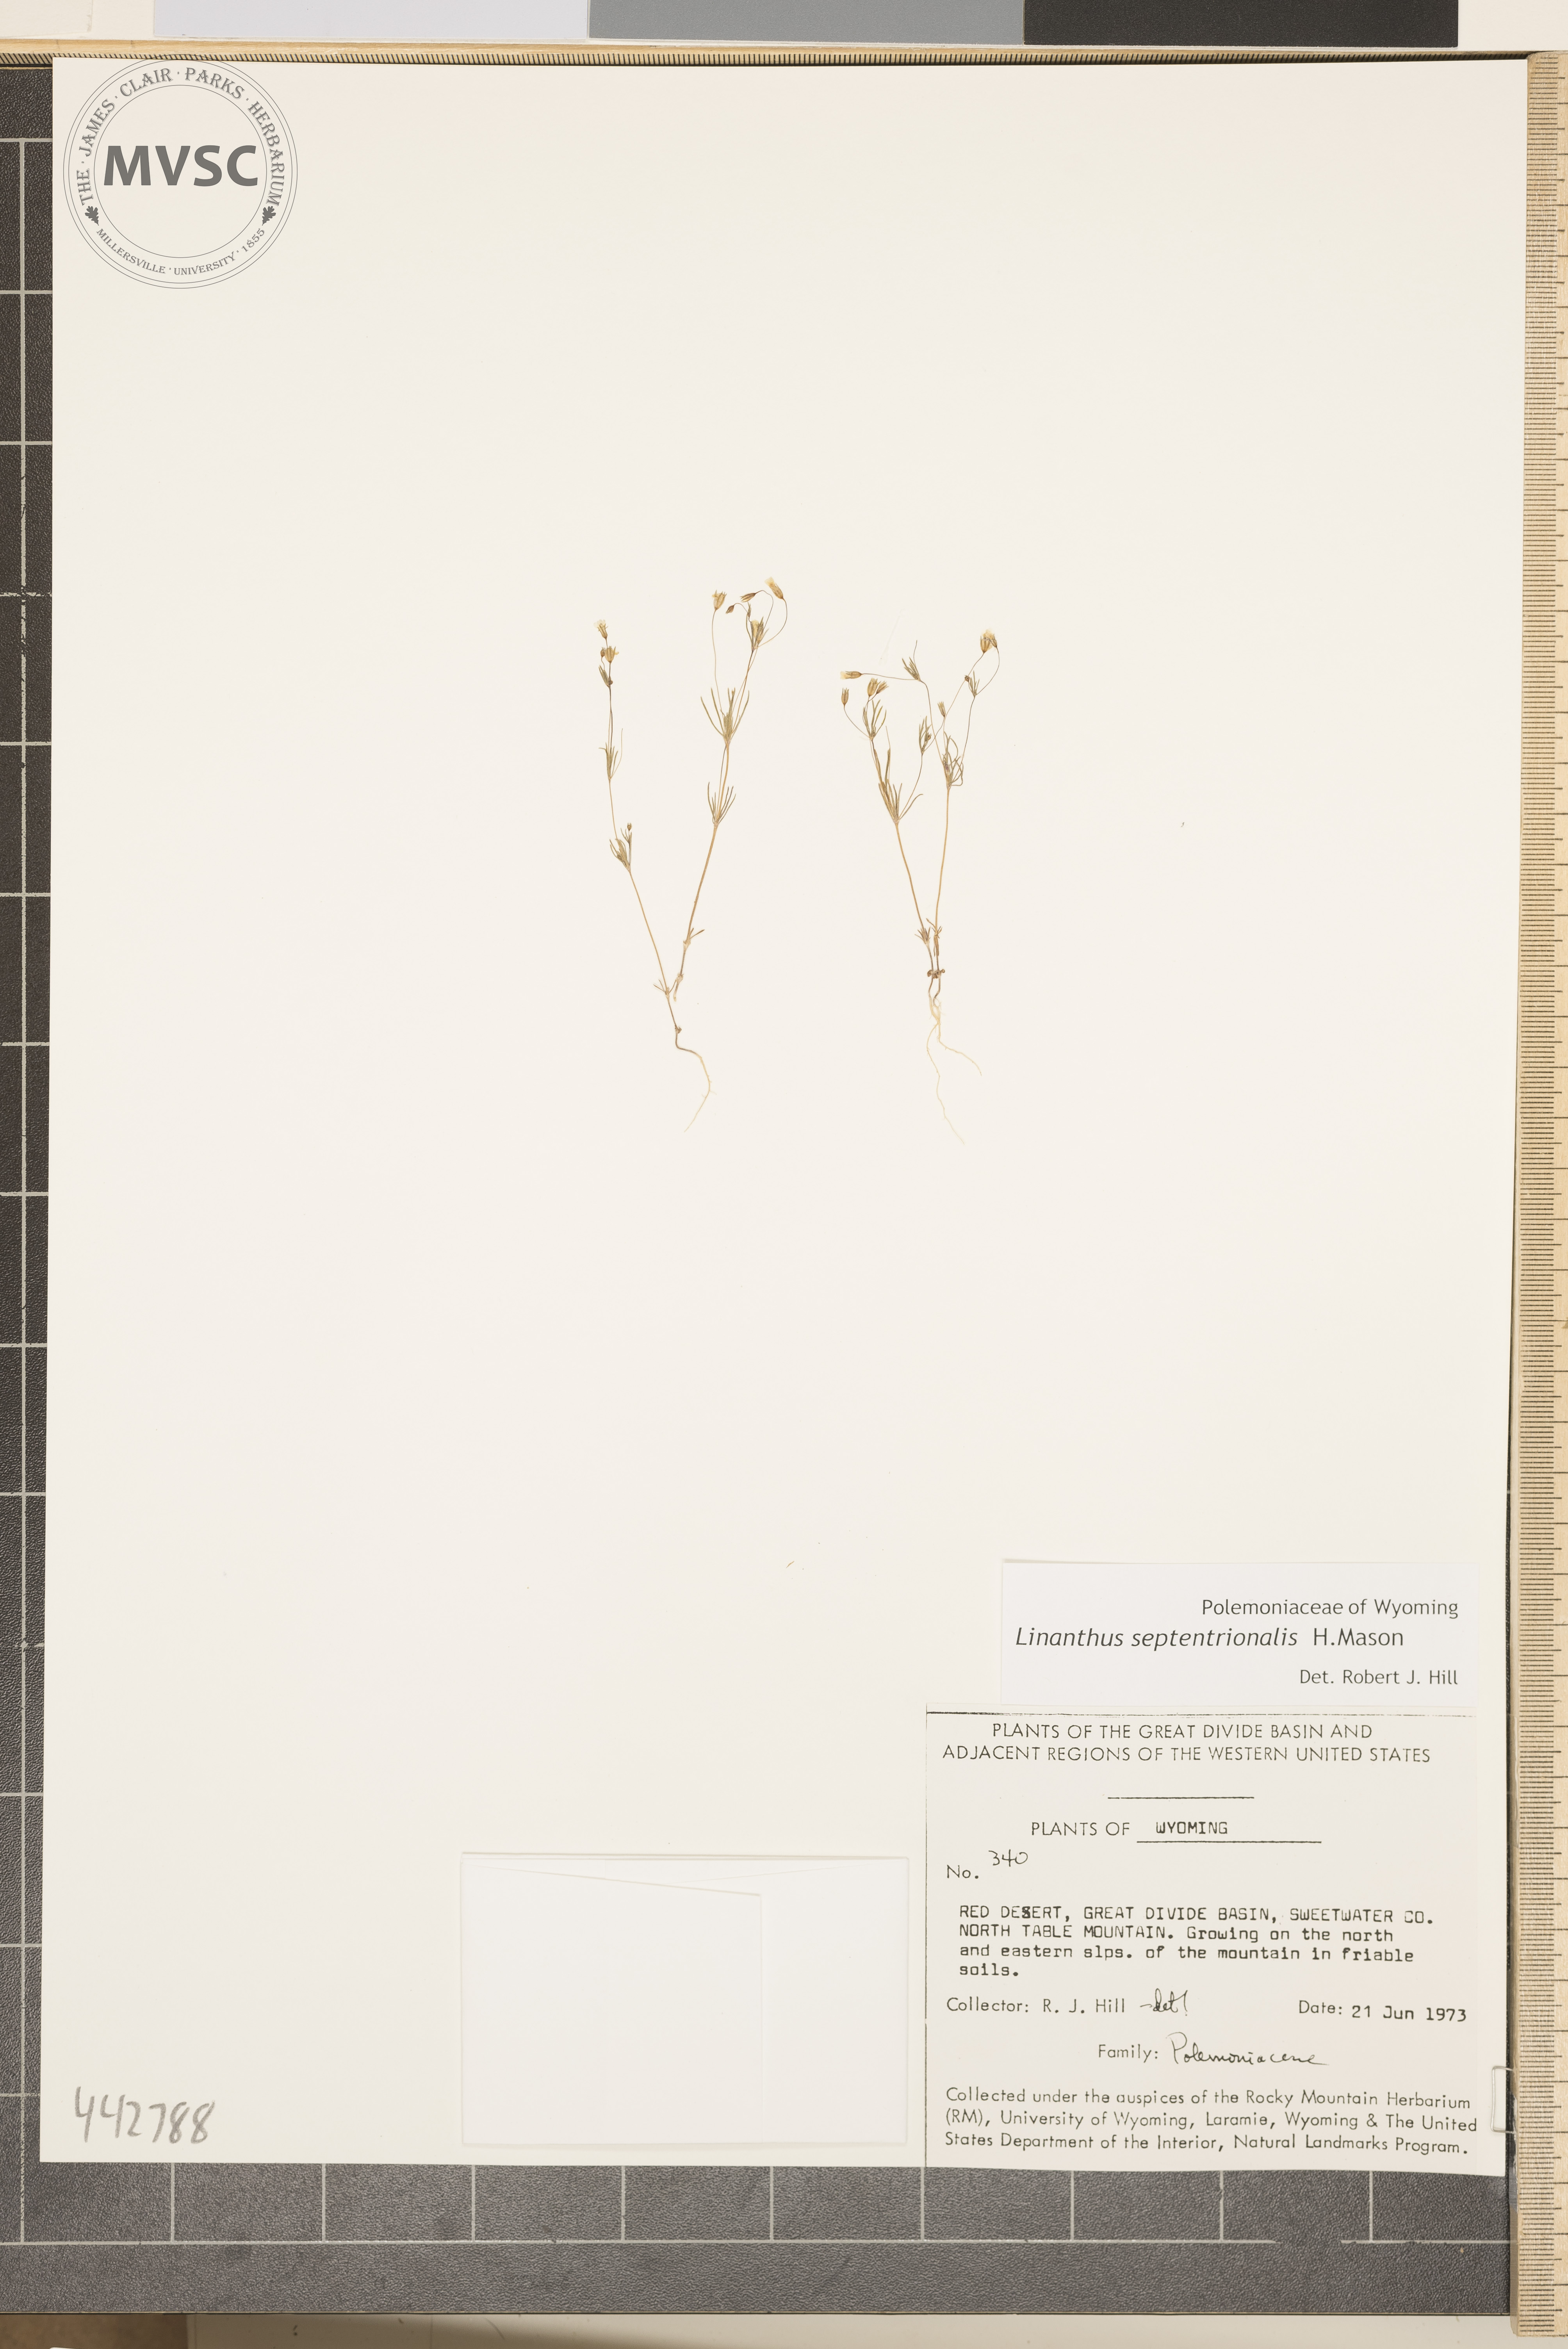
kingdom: Plantae
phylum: Tracheophyta
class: Magnoliopsida
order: Ericales
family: Polemoniaceae
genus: Leptosiphon
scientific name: Leptosiphon septentrionalis
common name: Northern linanthus
